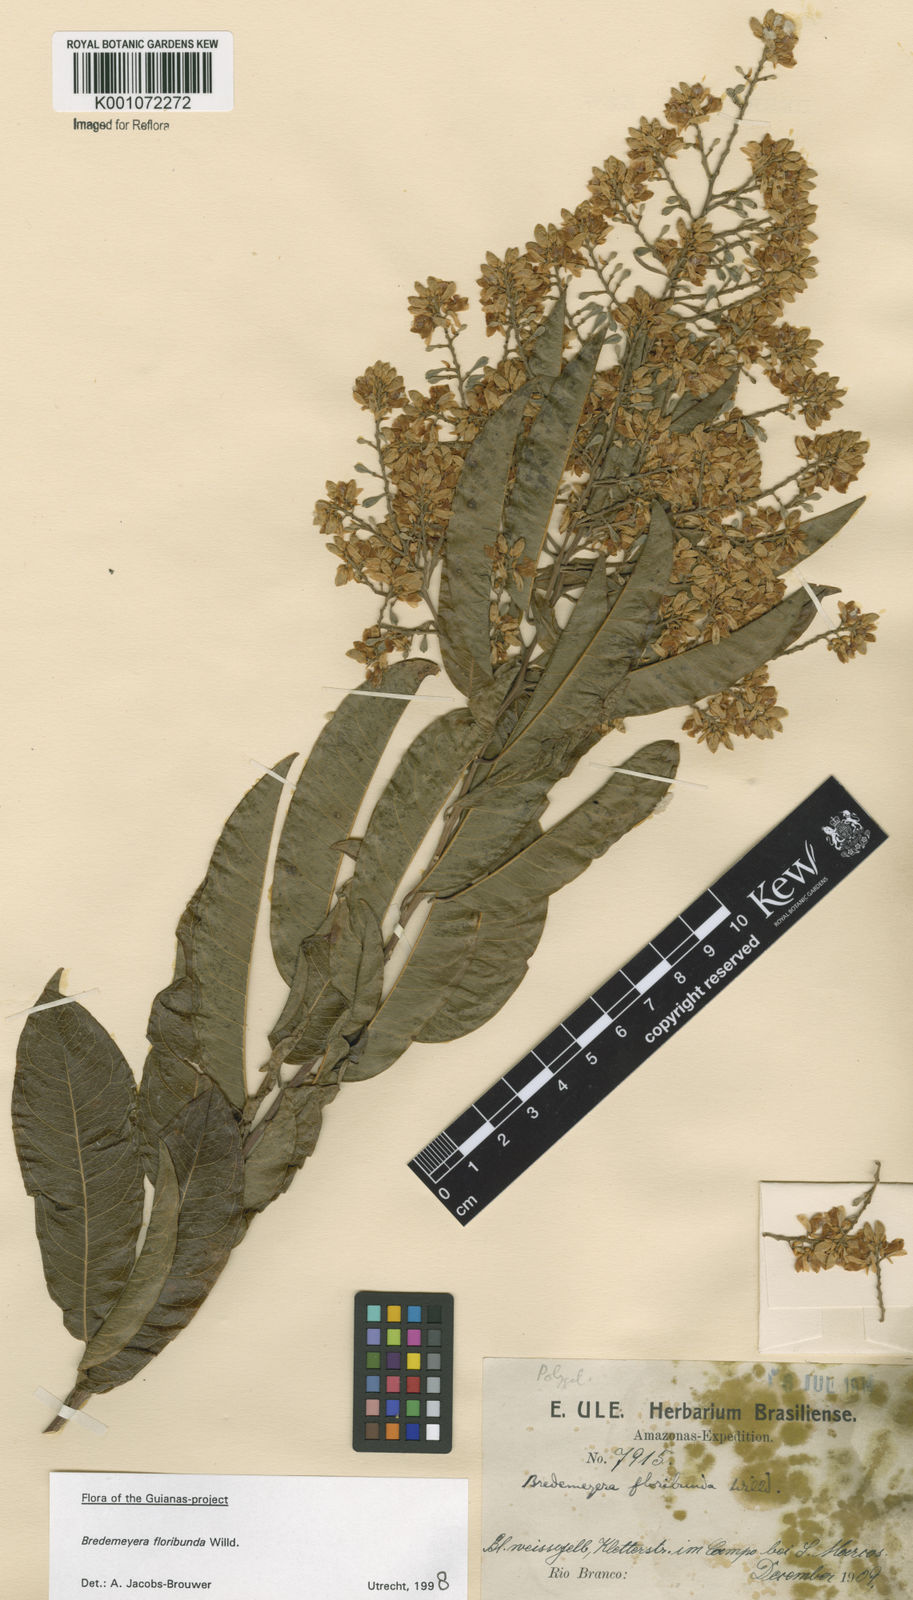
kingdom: Plantae
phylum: Tracheophyta
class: Magnoliopsida
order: Fabales
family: Polygalaceae
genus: Bredemeyera
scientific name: Bredemeyera floribunda
